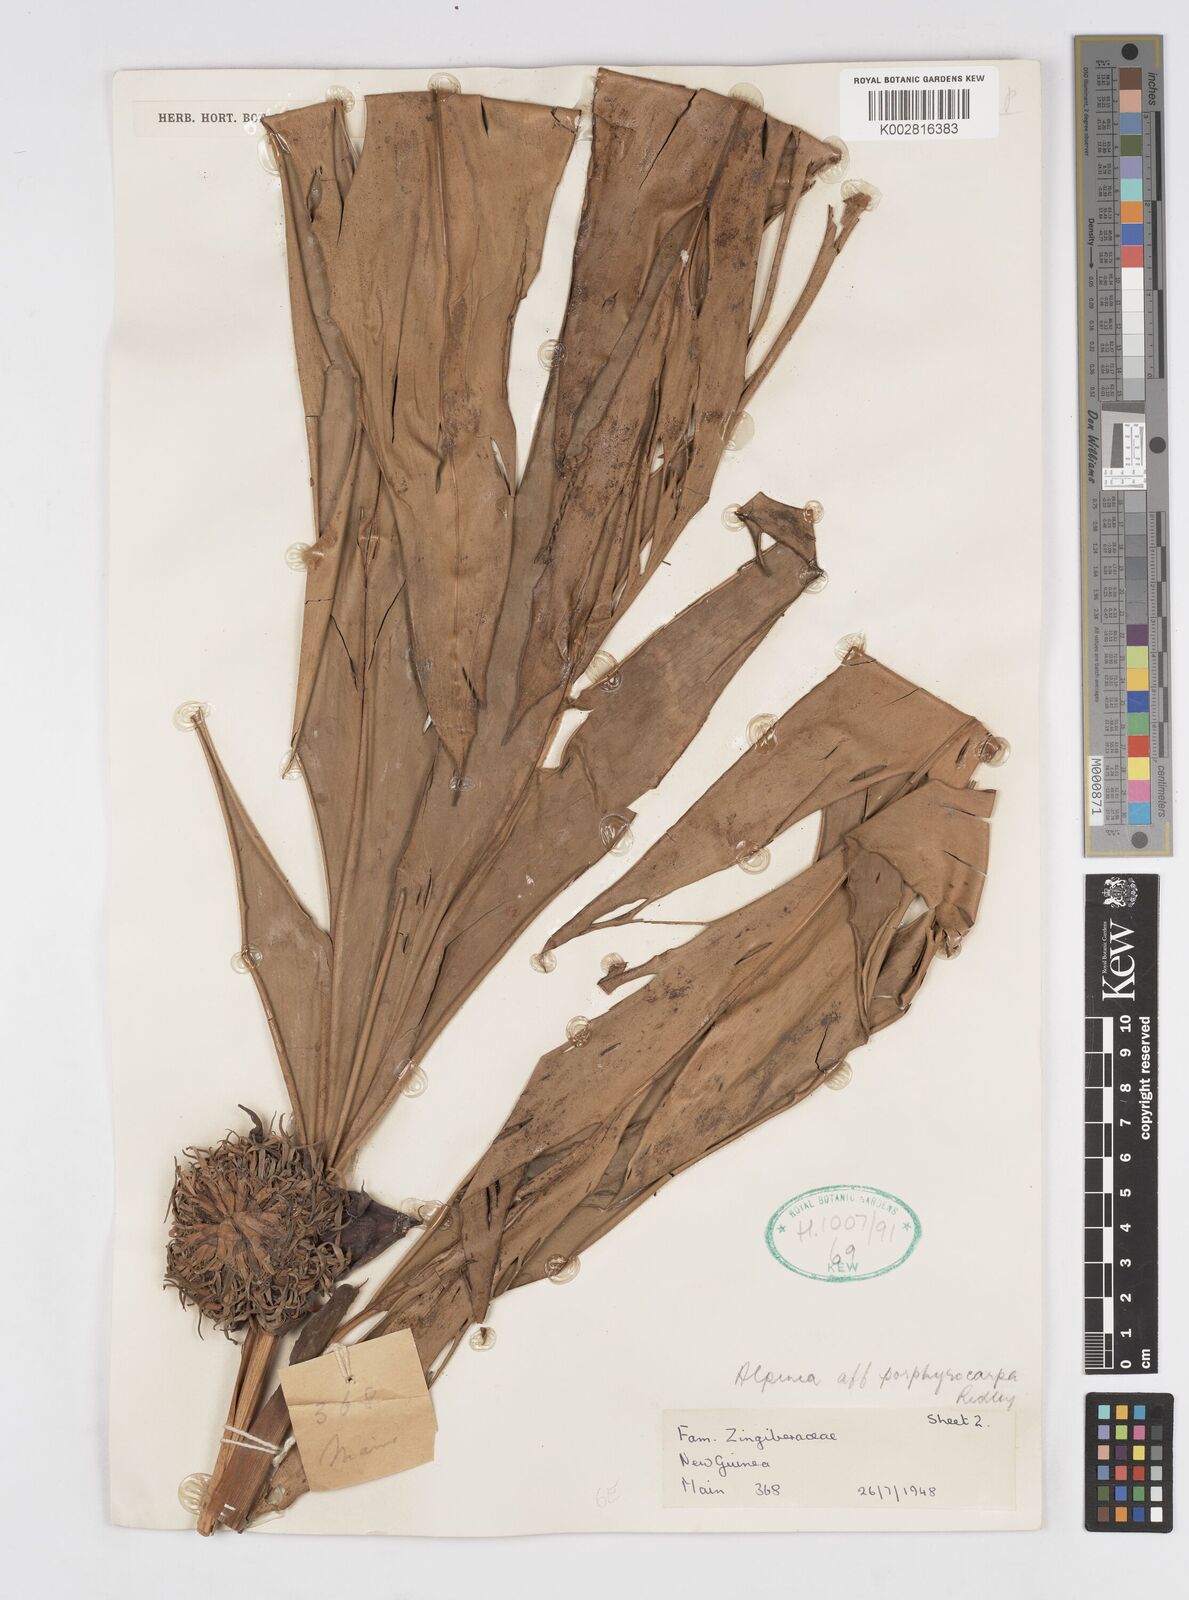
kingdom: Plantae
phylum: Tracheophyta
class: Liliopsida
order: Zingiberales
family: Zingiberaceae
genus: Alpinia
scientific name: Alpinia porphyrocarpa
